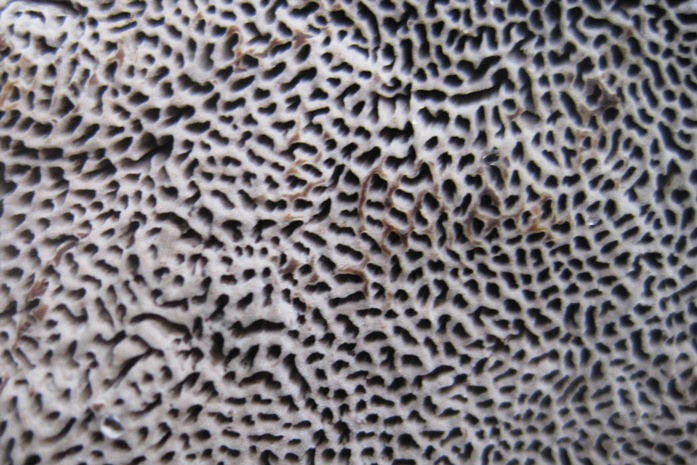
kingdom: Fungi
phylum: Basidiomycota
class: Agaricomycetes
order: Polyporales
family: Polyporaceae
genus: Podofomes
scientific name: Podofomes mollis
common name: blød begporesvamp
